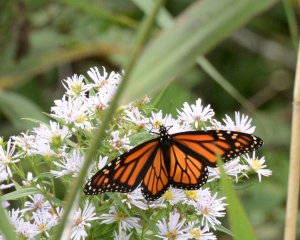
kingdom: Animalia
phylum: Arthropoda
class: Insecta
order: Lepidoptera
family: Nymphalidae
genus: Danaus
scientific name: Danaus plexippus
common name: Monarch
